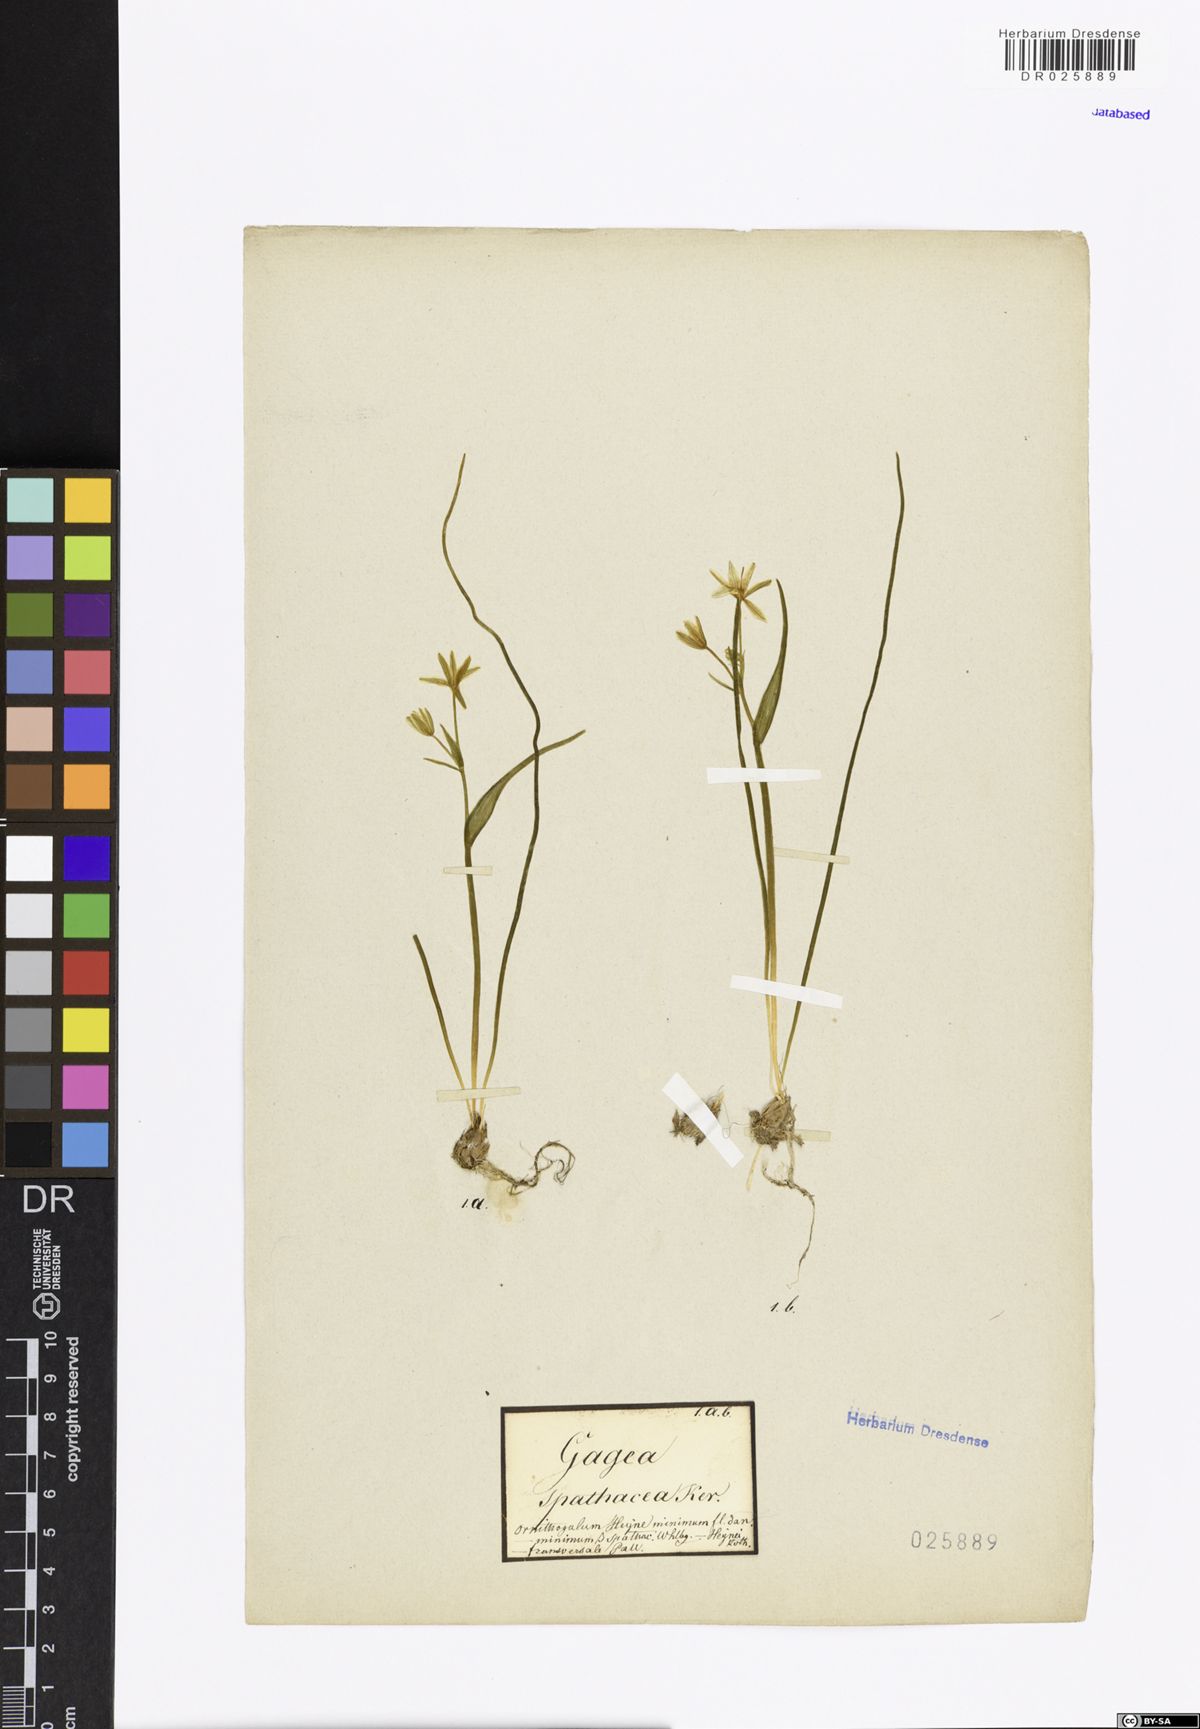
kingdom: Plantae
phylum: Tracheophyta
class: Liliopsida
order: Liliales
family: Liliaceae
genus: Gagea
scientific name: Gagea spathacea
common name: Belgian gagea
